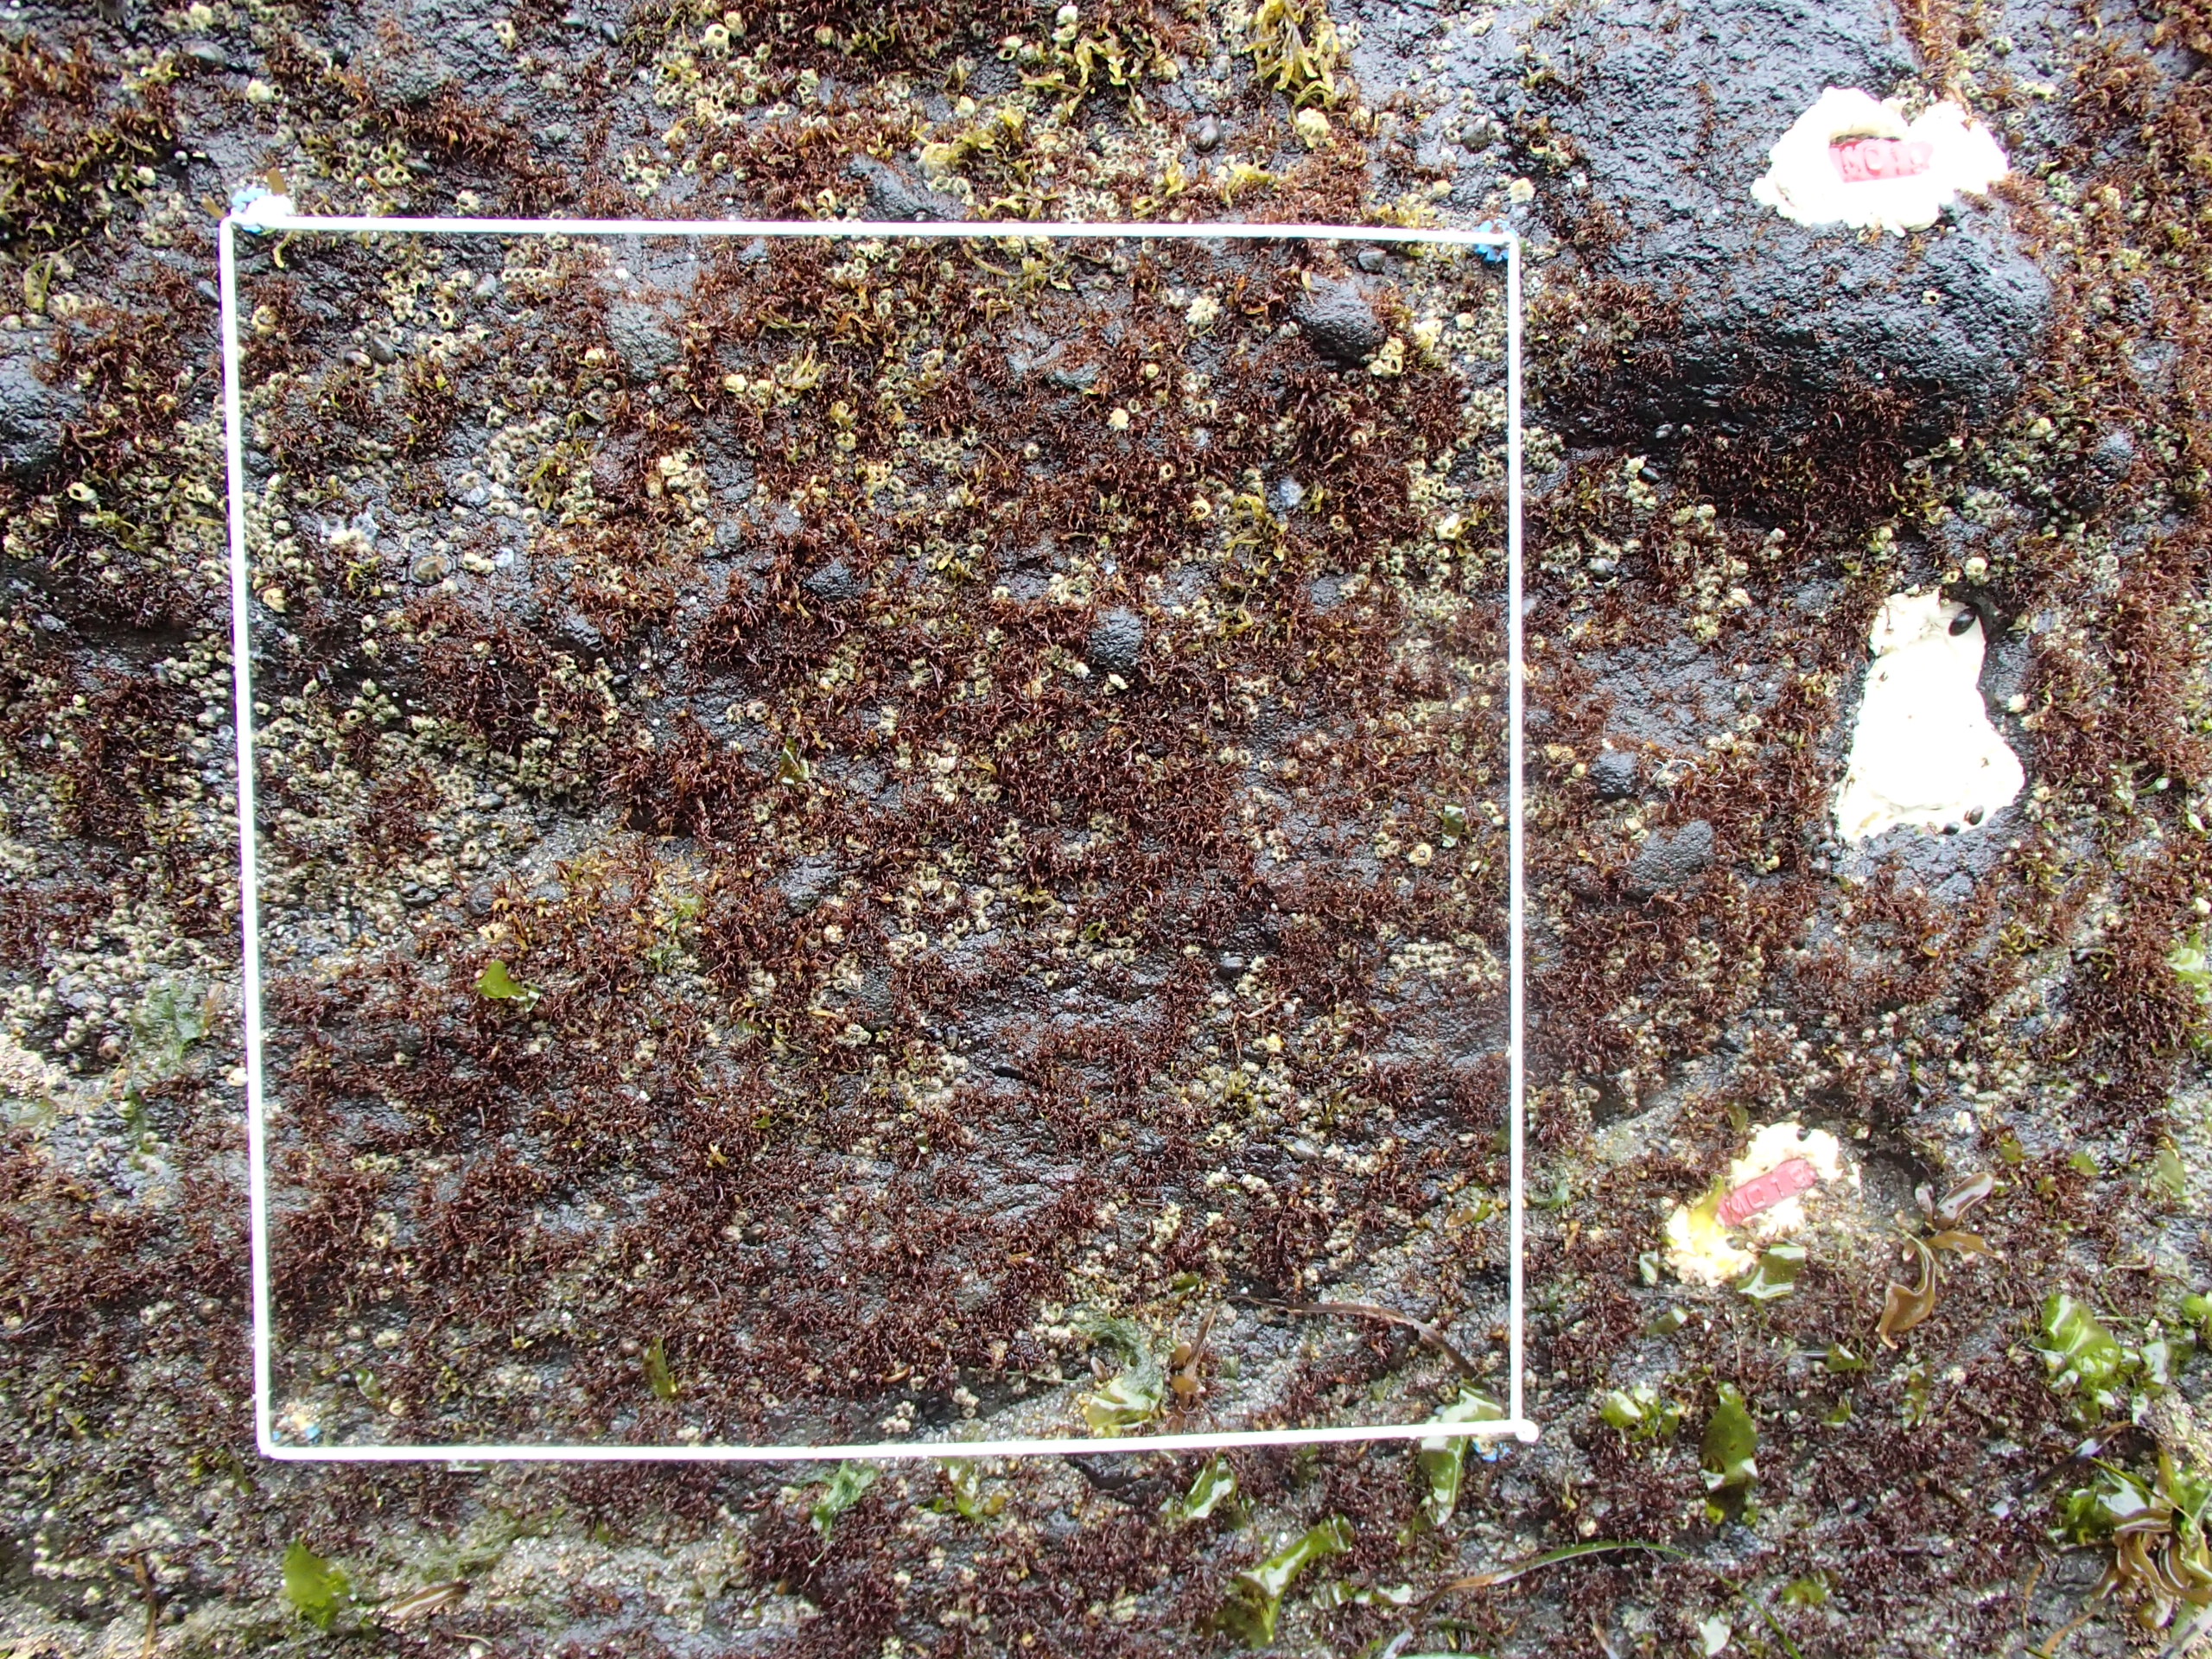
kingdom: Chromista
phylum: Ochrophyta
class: Phaeophyceae
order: Scytosiphonales
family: Scytosiphonaceae
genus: Analipus
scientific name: Analipus japonicus
